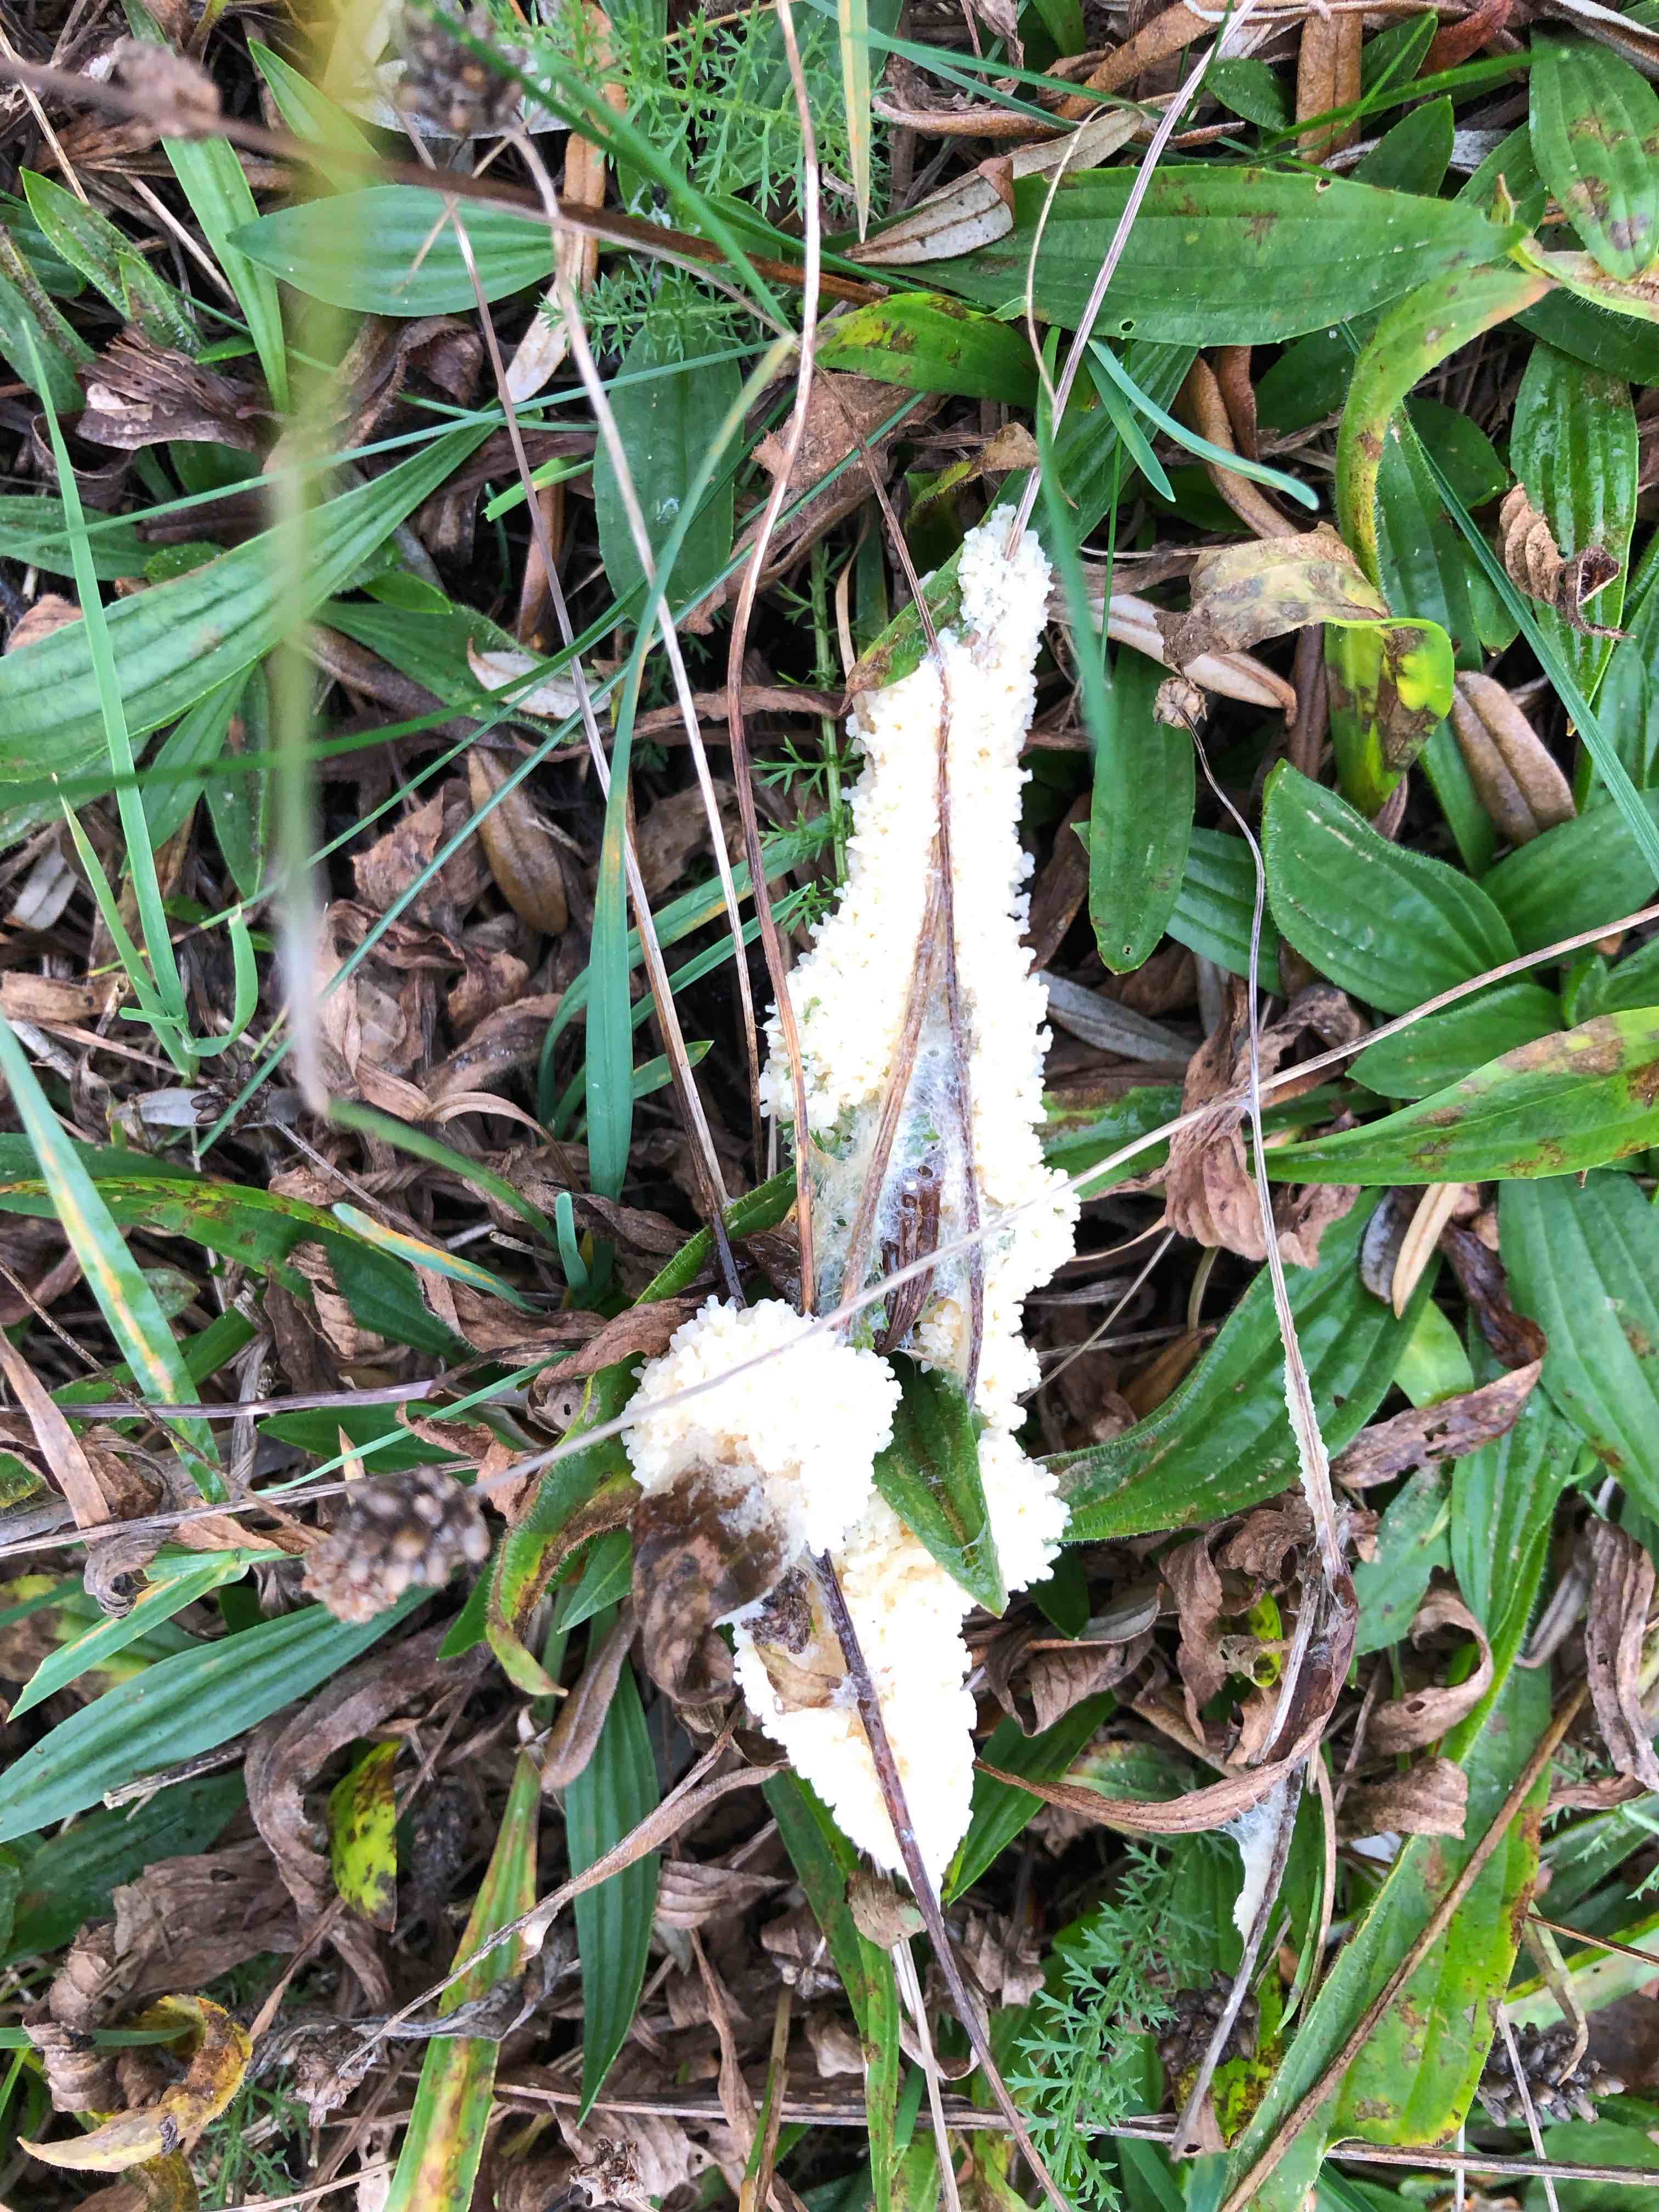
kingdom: Protozoa
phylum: Mycetozoa
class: Myxomycetes
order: Physarales
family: Physaraceae
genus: Didymium
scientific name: Didymium
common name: urteskum
